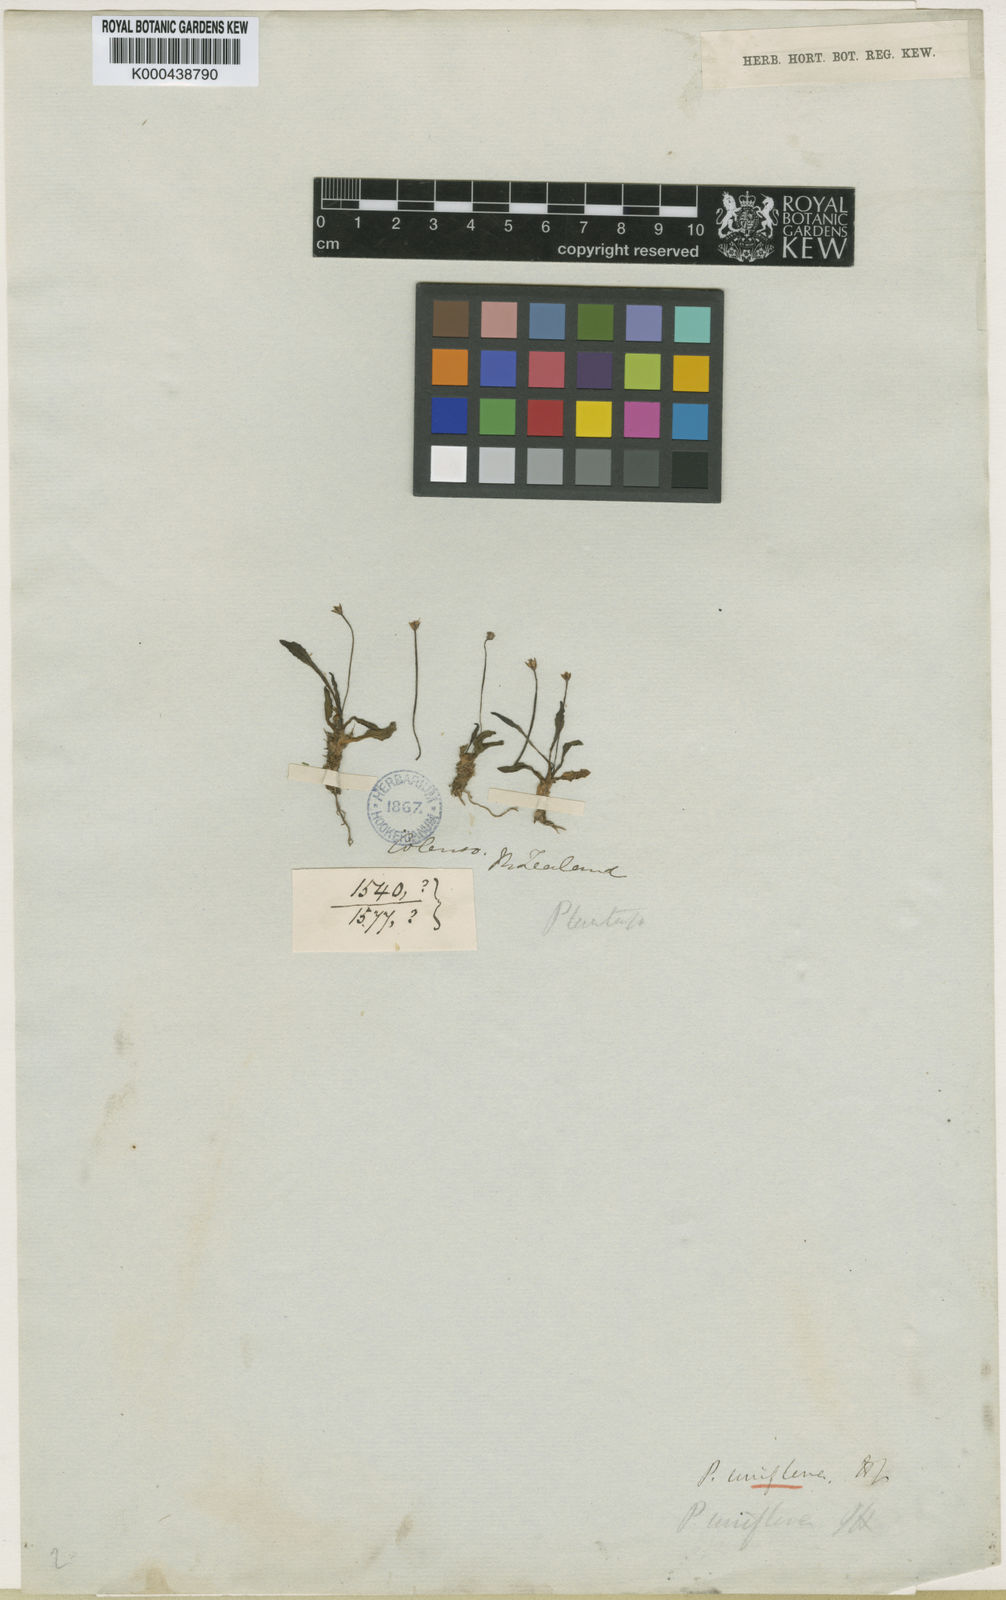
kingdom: Plantae
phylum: Tracheophyta
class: Magnoliopsida
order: Lamiales
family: Plantaginaceae
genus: Plantago
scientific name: Plantago brownii
